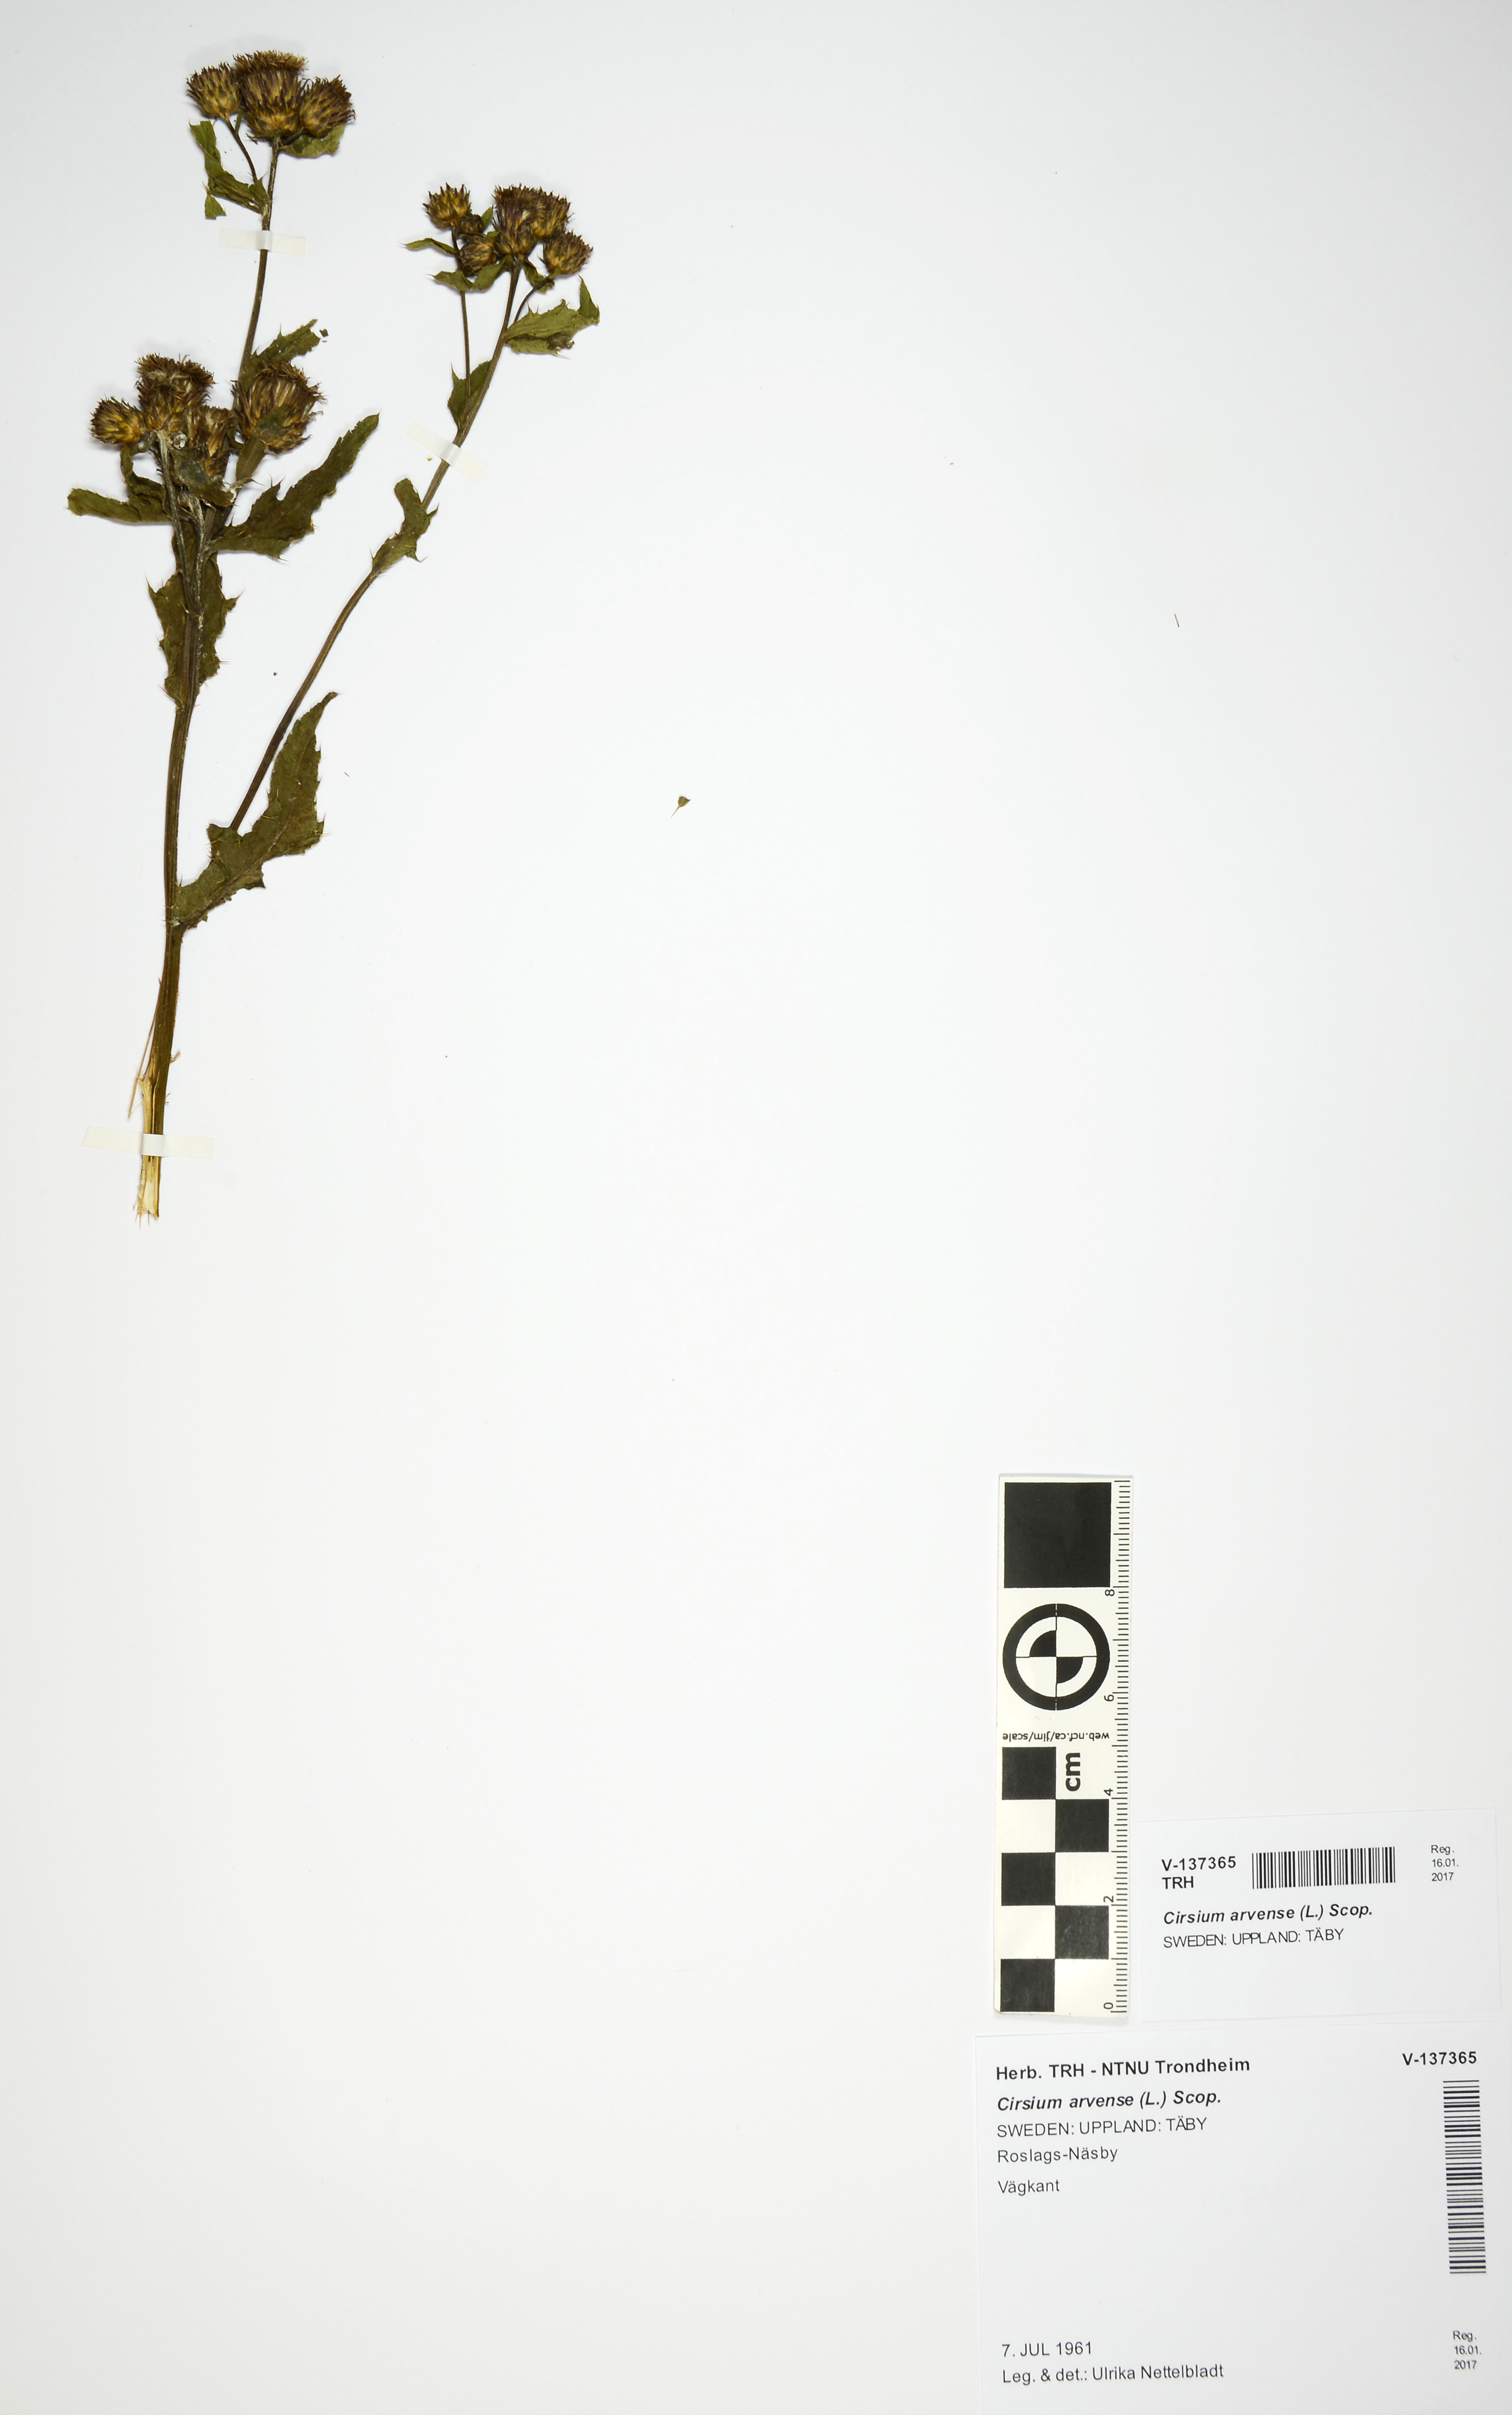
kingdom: Plantae
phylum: Tracheophyta
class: Magnoliopsida
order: Asterales
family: Asteraceae
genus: Cirsium
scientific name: Cirsium arvense
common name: Creeping thistle
